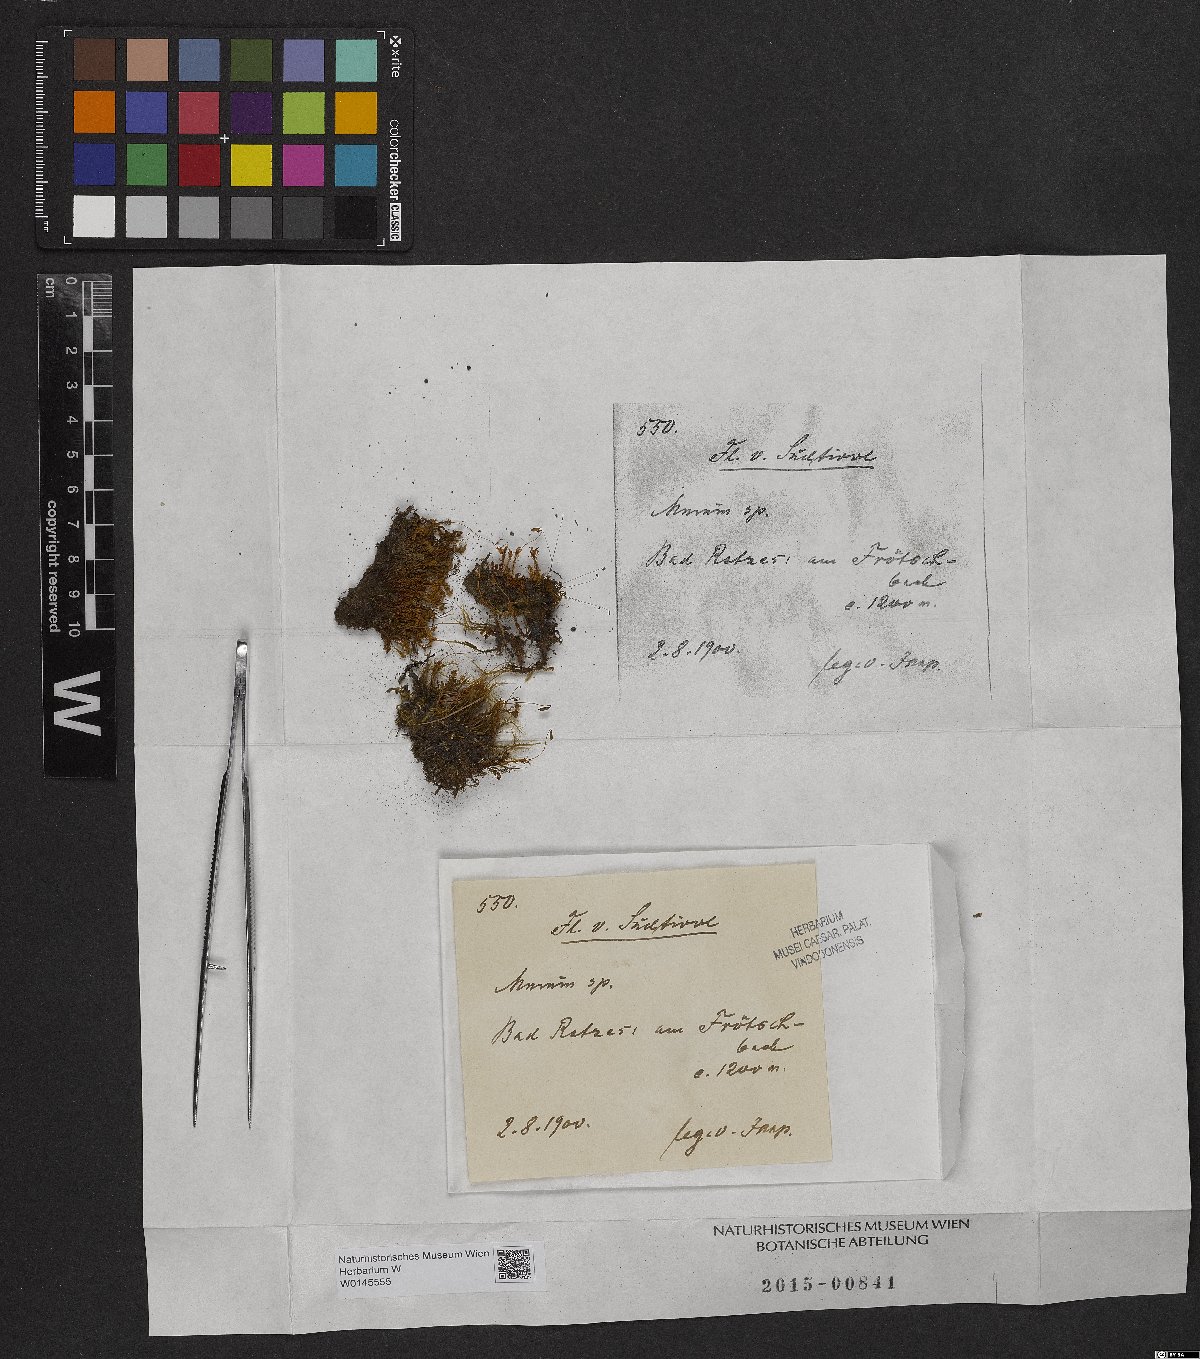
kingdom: Plantae
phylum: Bryophyta
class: Bryopsida
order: Bryales
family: Mniaceae
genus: Mnium
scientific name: Mnium
